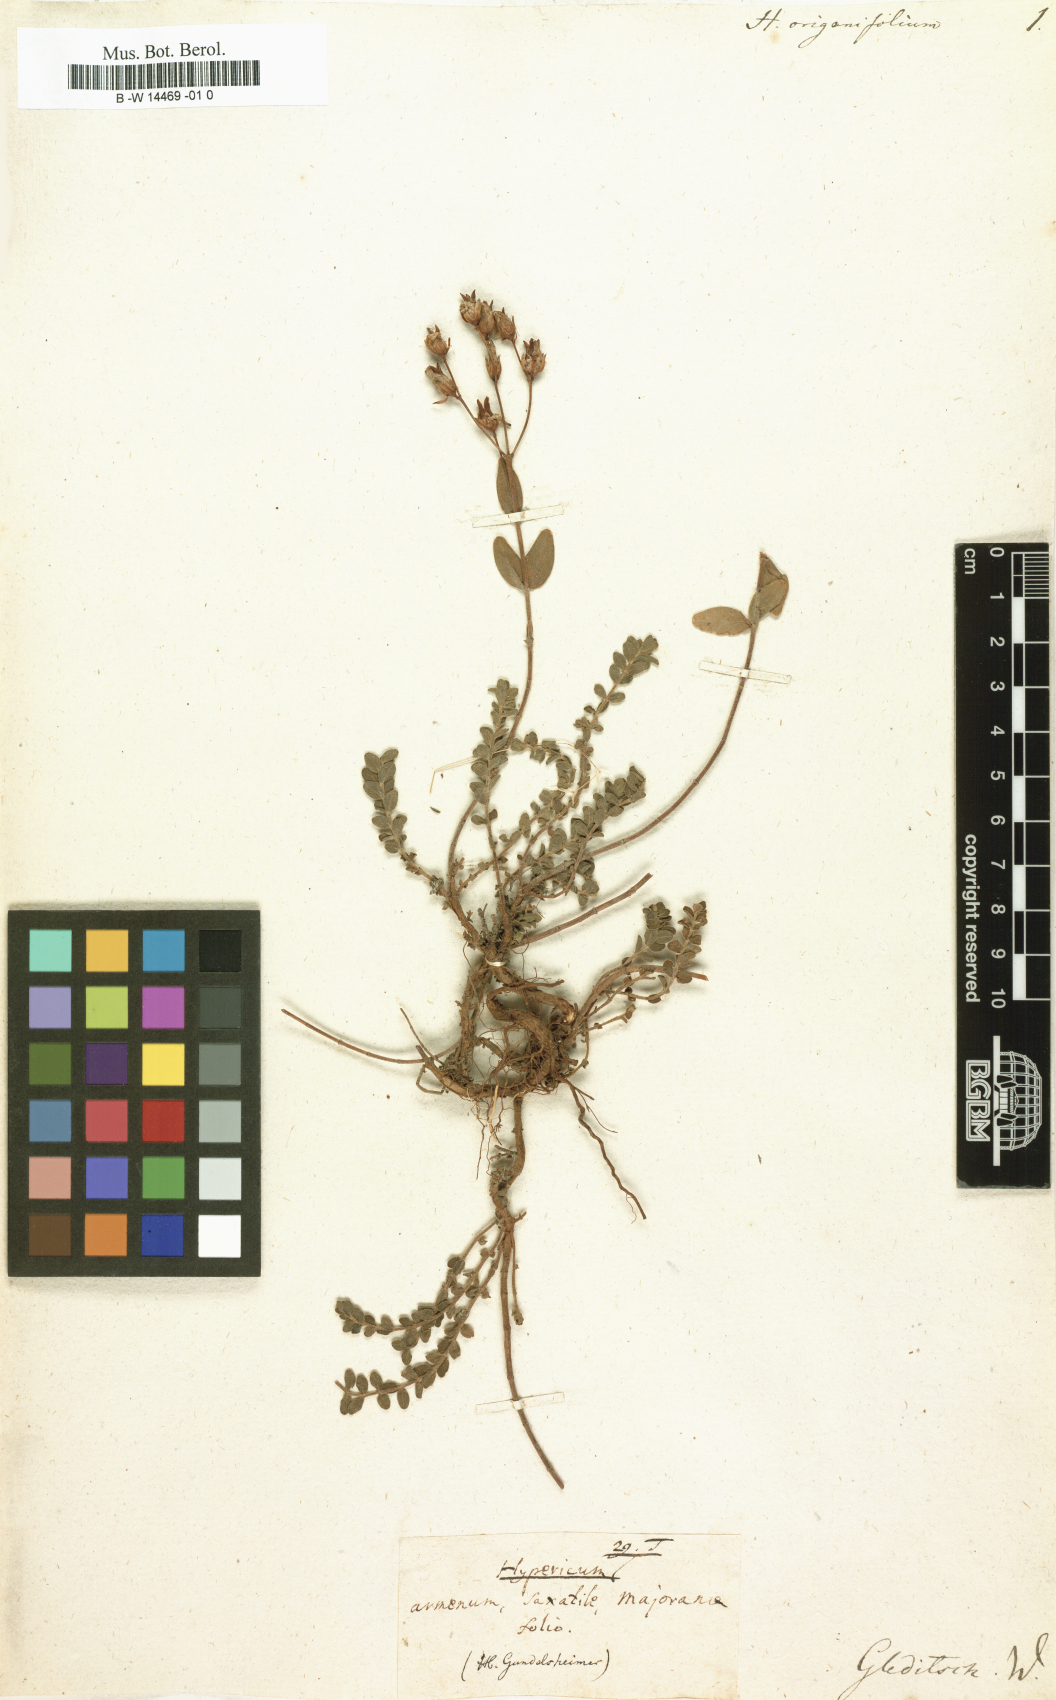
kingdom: Plantae
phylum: Tracheophyta
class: Magnoliopsida
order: Malpighiales
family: Hypericaceae
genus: Hypericum
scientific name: Hypericum origanifolium
